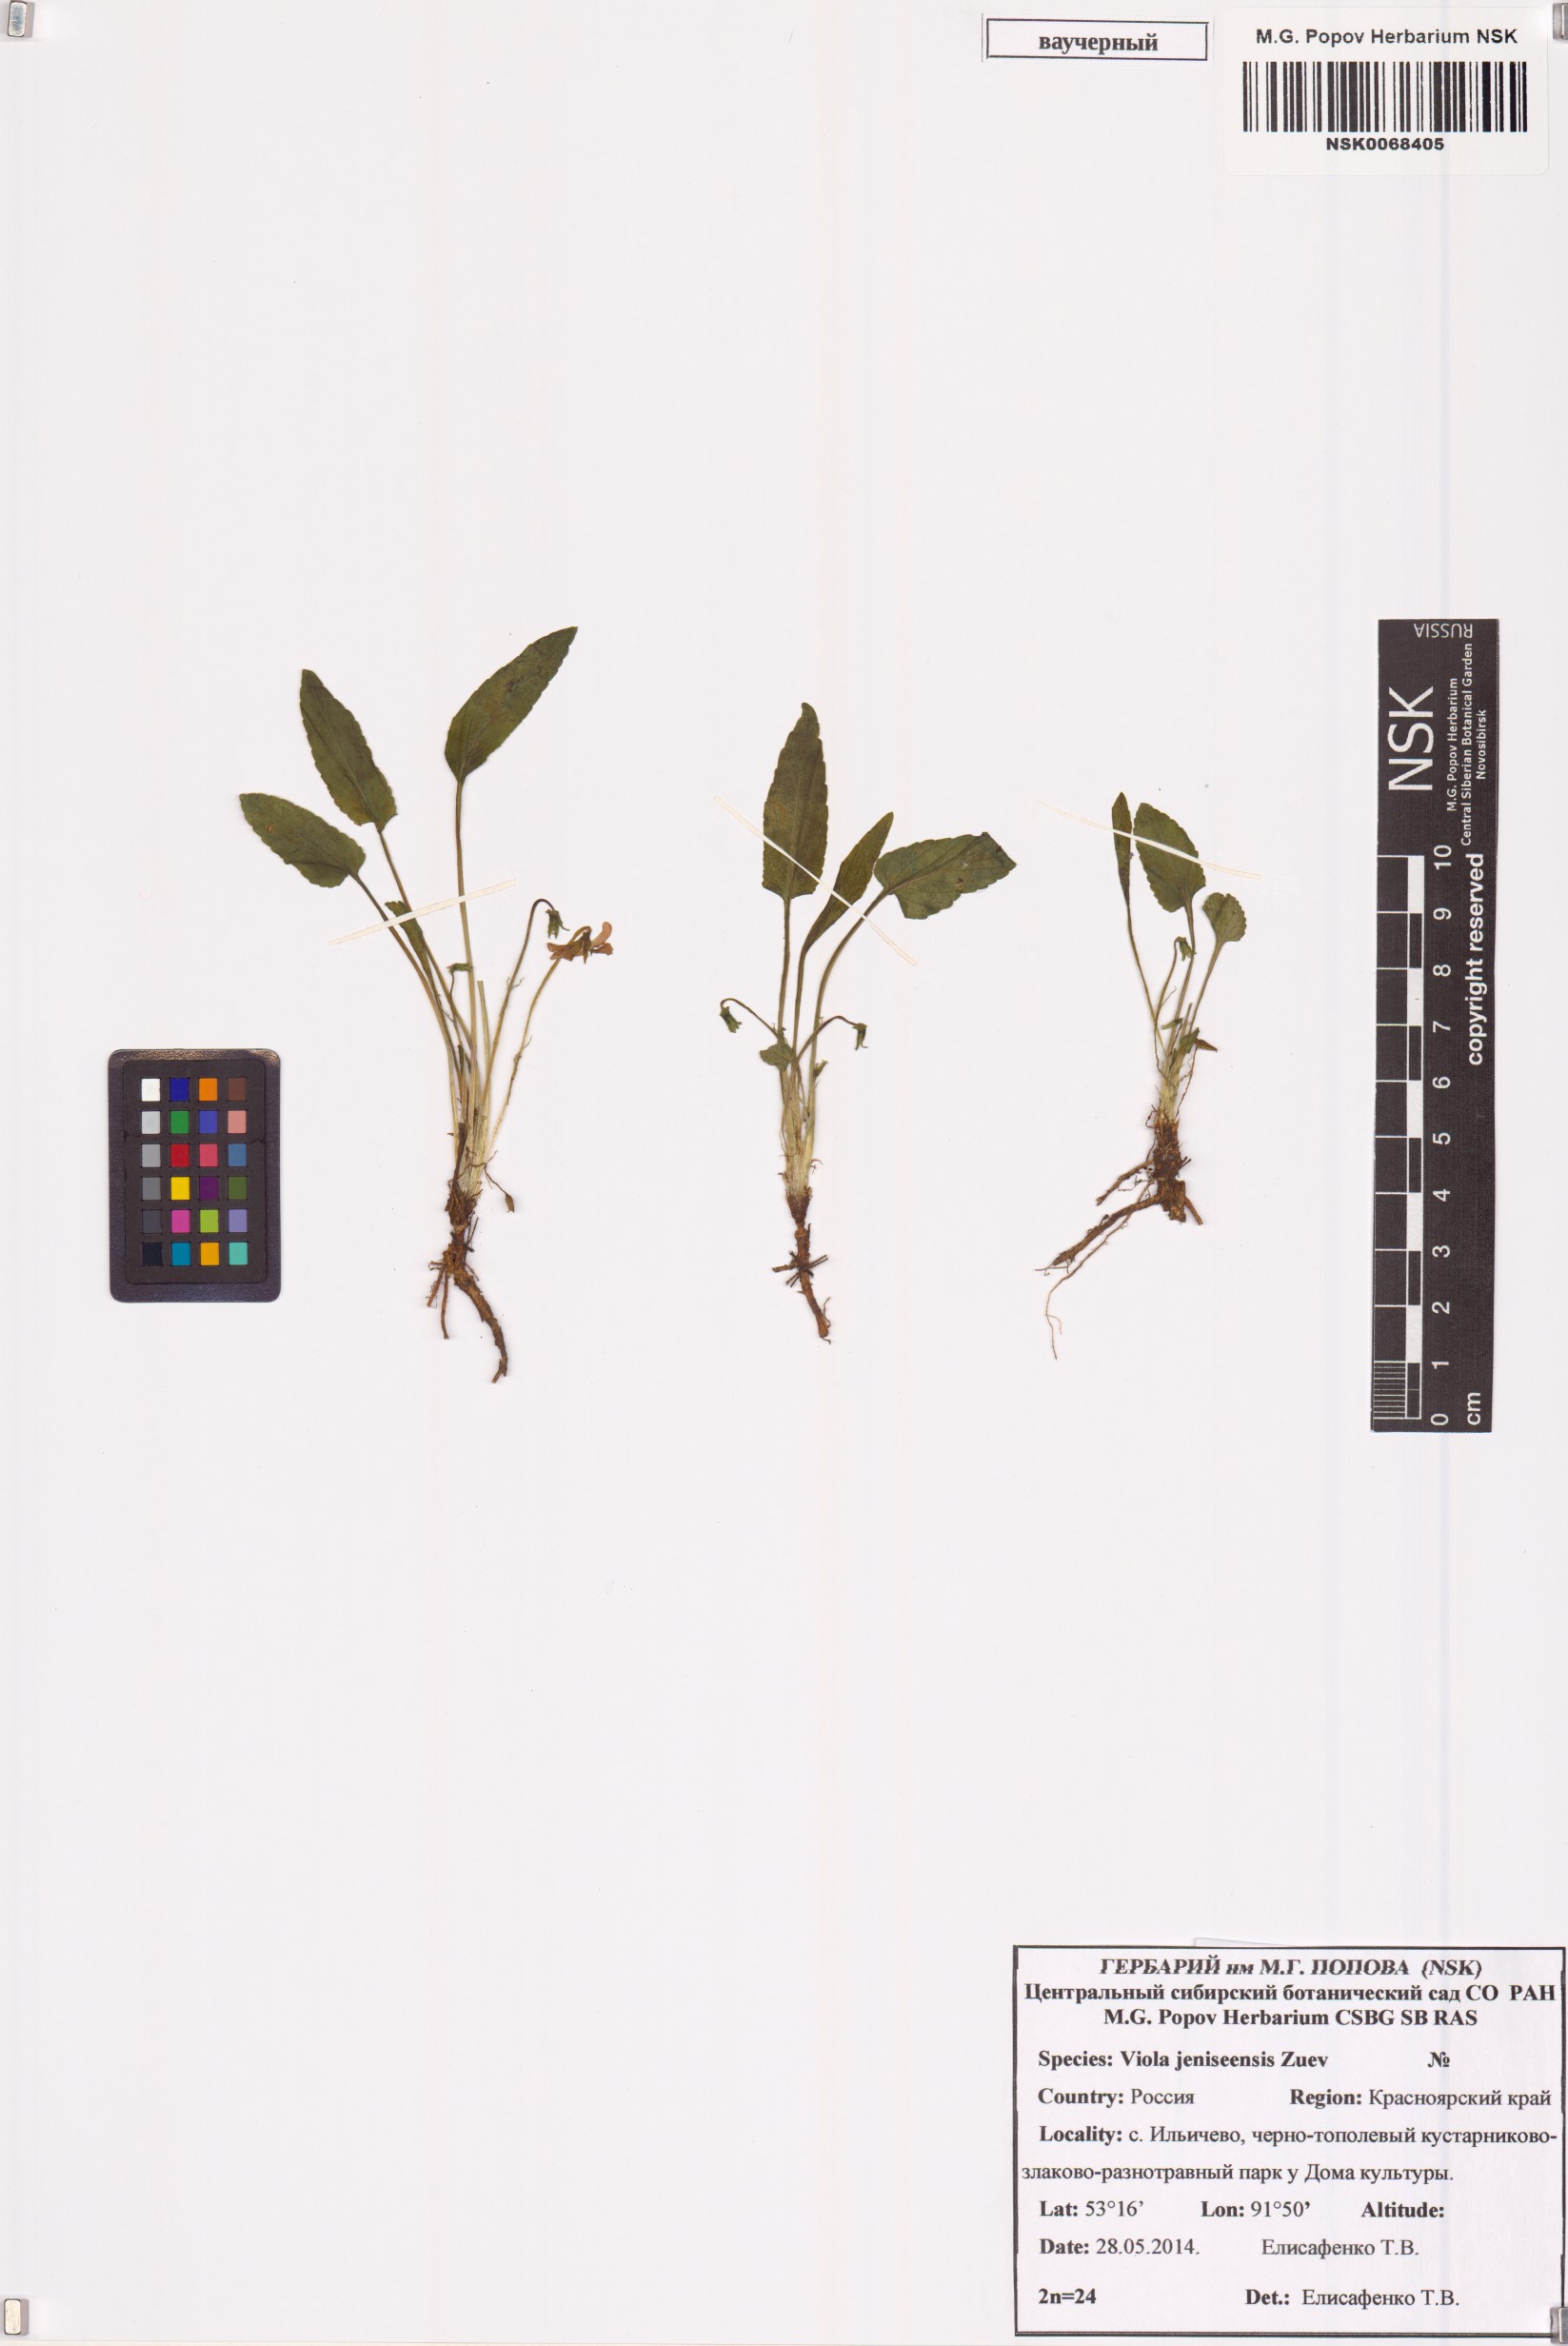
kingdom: Plantae
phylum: Tracheophyta
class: Magnoliopsida
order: Malpighiales
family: Violaceae
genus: Viola
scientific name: Viola prionantha
